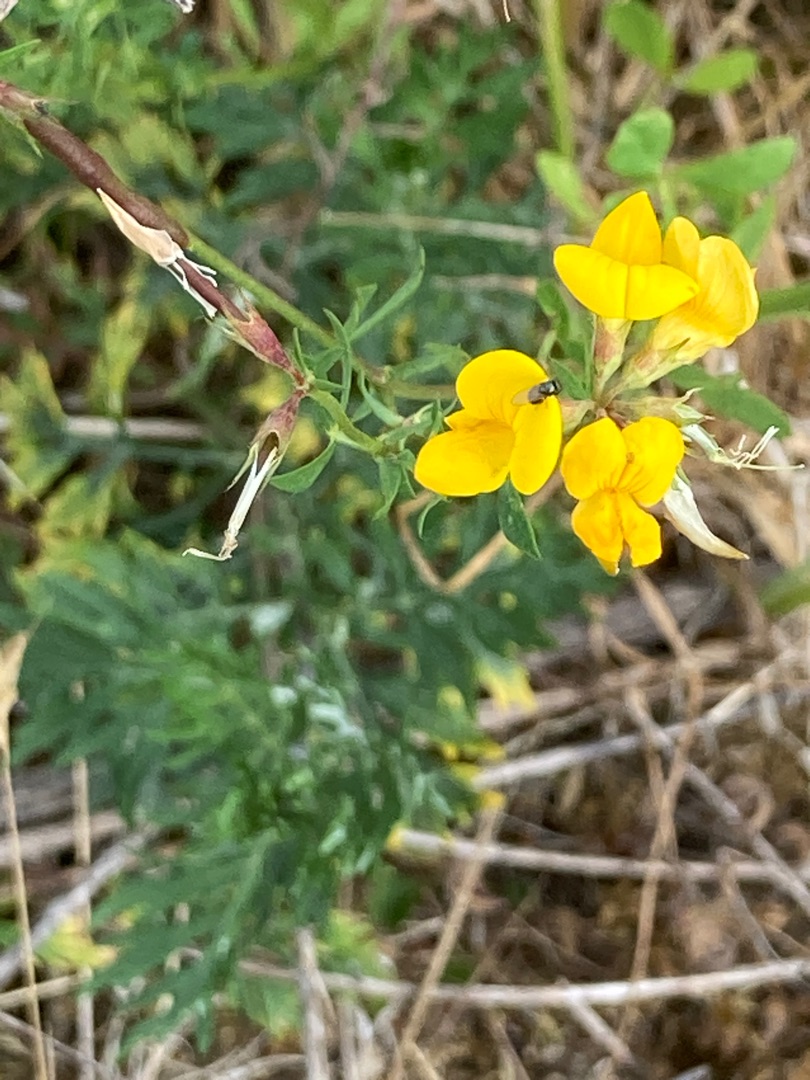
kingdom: Plantae
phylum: Tracheophyta
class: Magnoliopsida
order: Fabales
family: Fabaceae
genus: Lotus
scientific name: Lotus corniculatus
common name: Almindelig kællingetand
